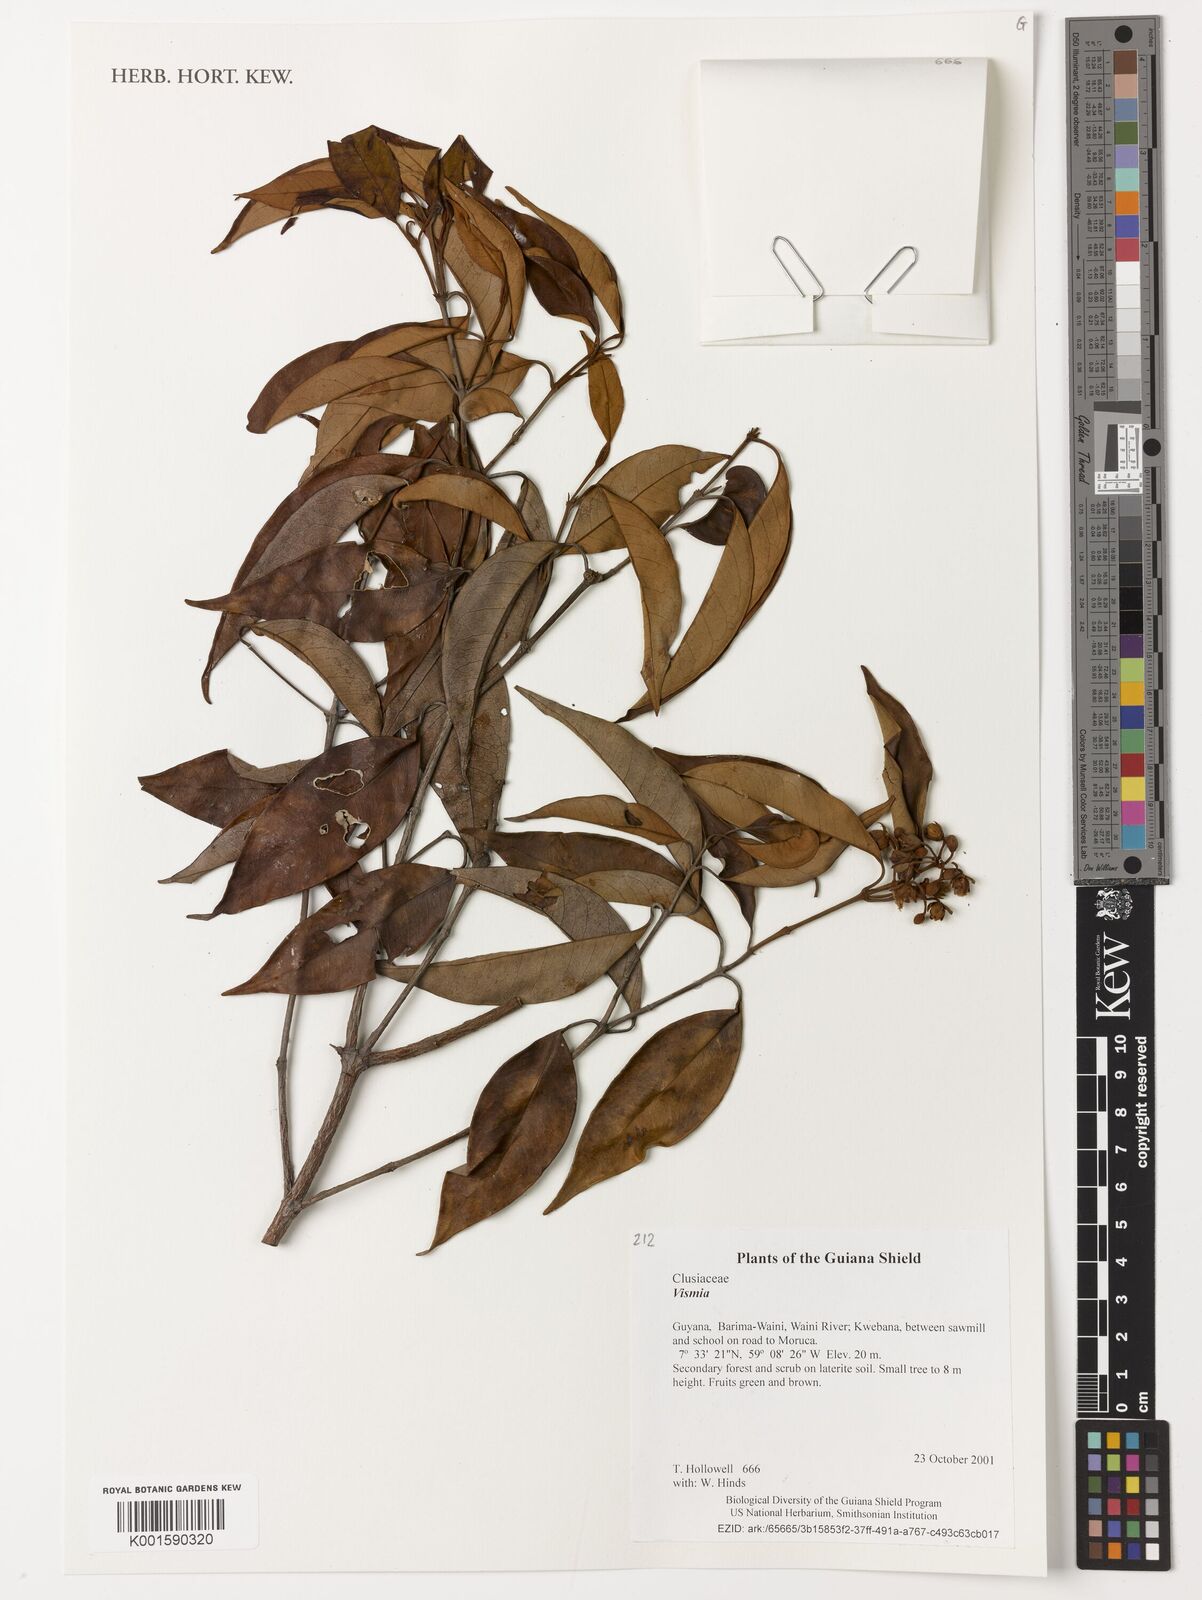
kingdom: Plantae
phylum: Tracheophyta
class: Magnoliopsida
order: Malpighiales
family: Hypericaceae
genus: Vismia
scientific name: Vismia
